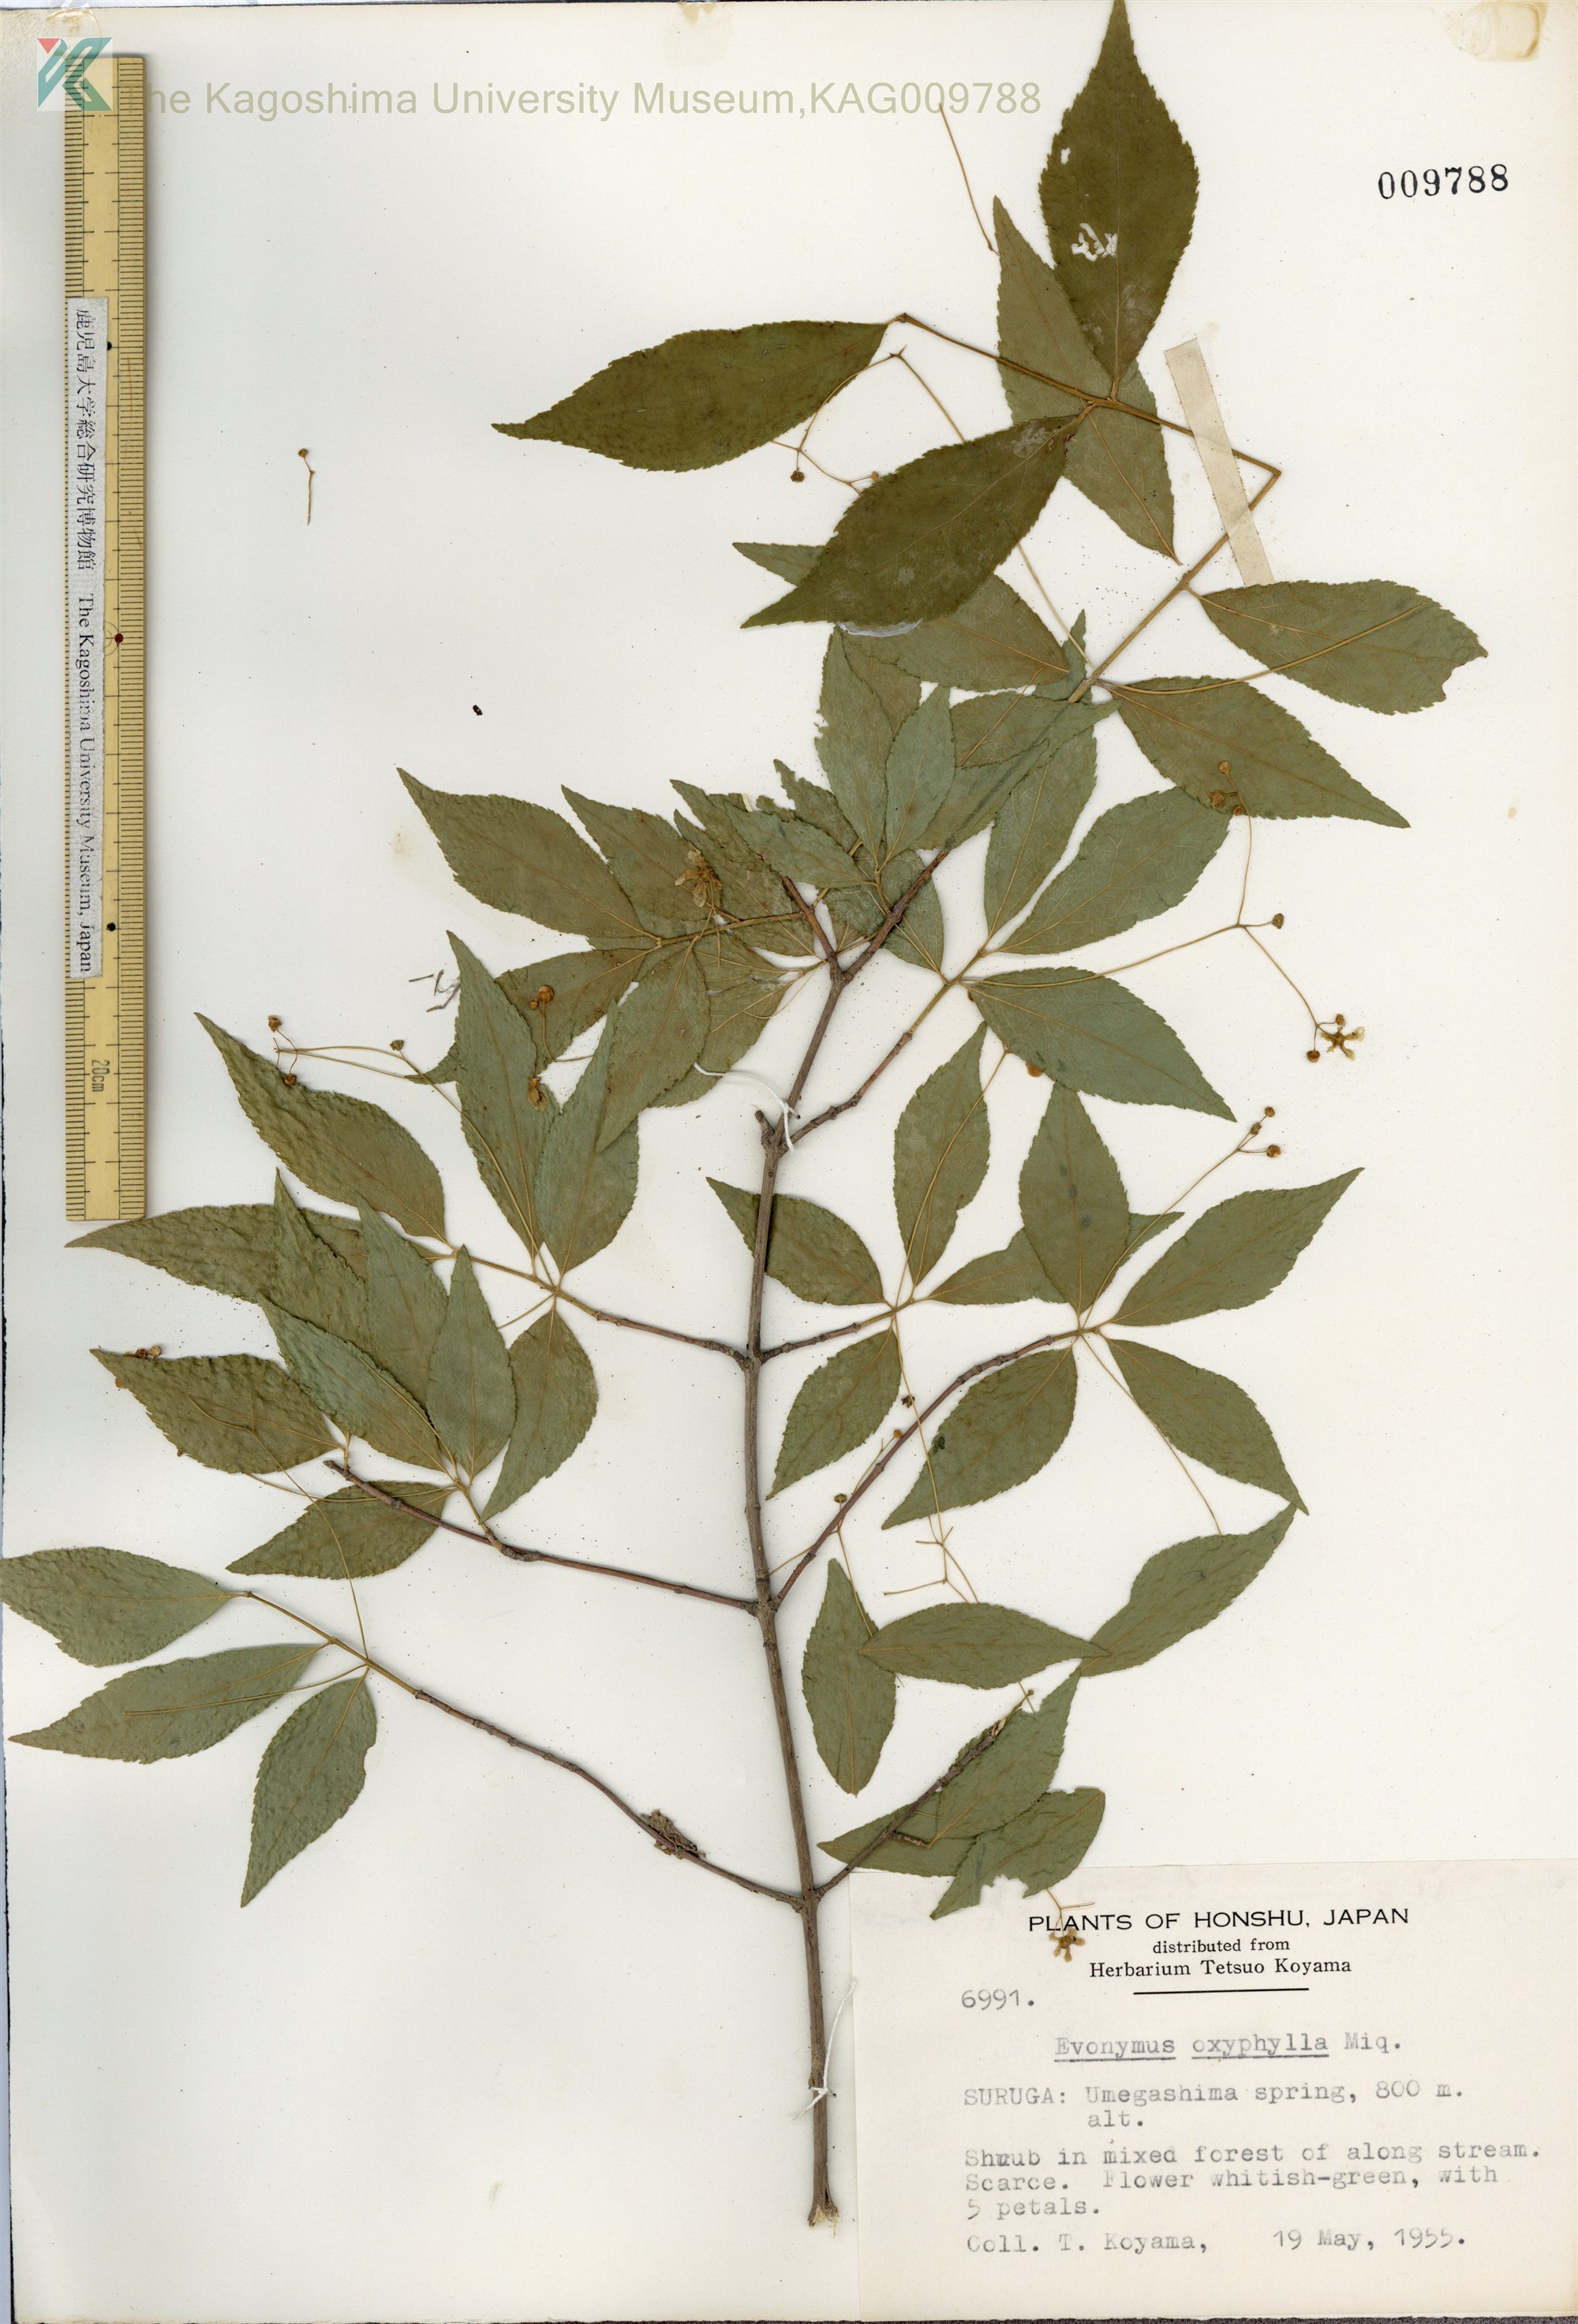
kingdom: Plantae
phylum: Tracheophyta
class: Magnoliopsida
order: Celastrales
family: Celastraceae
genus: Euonymus
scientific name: Euonymus oxyphyllus
